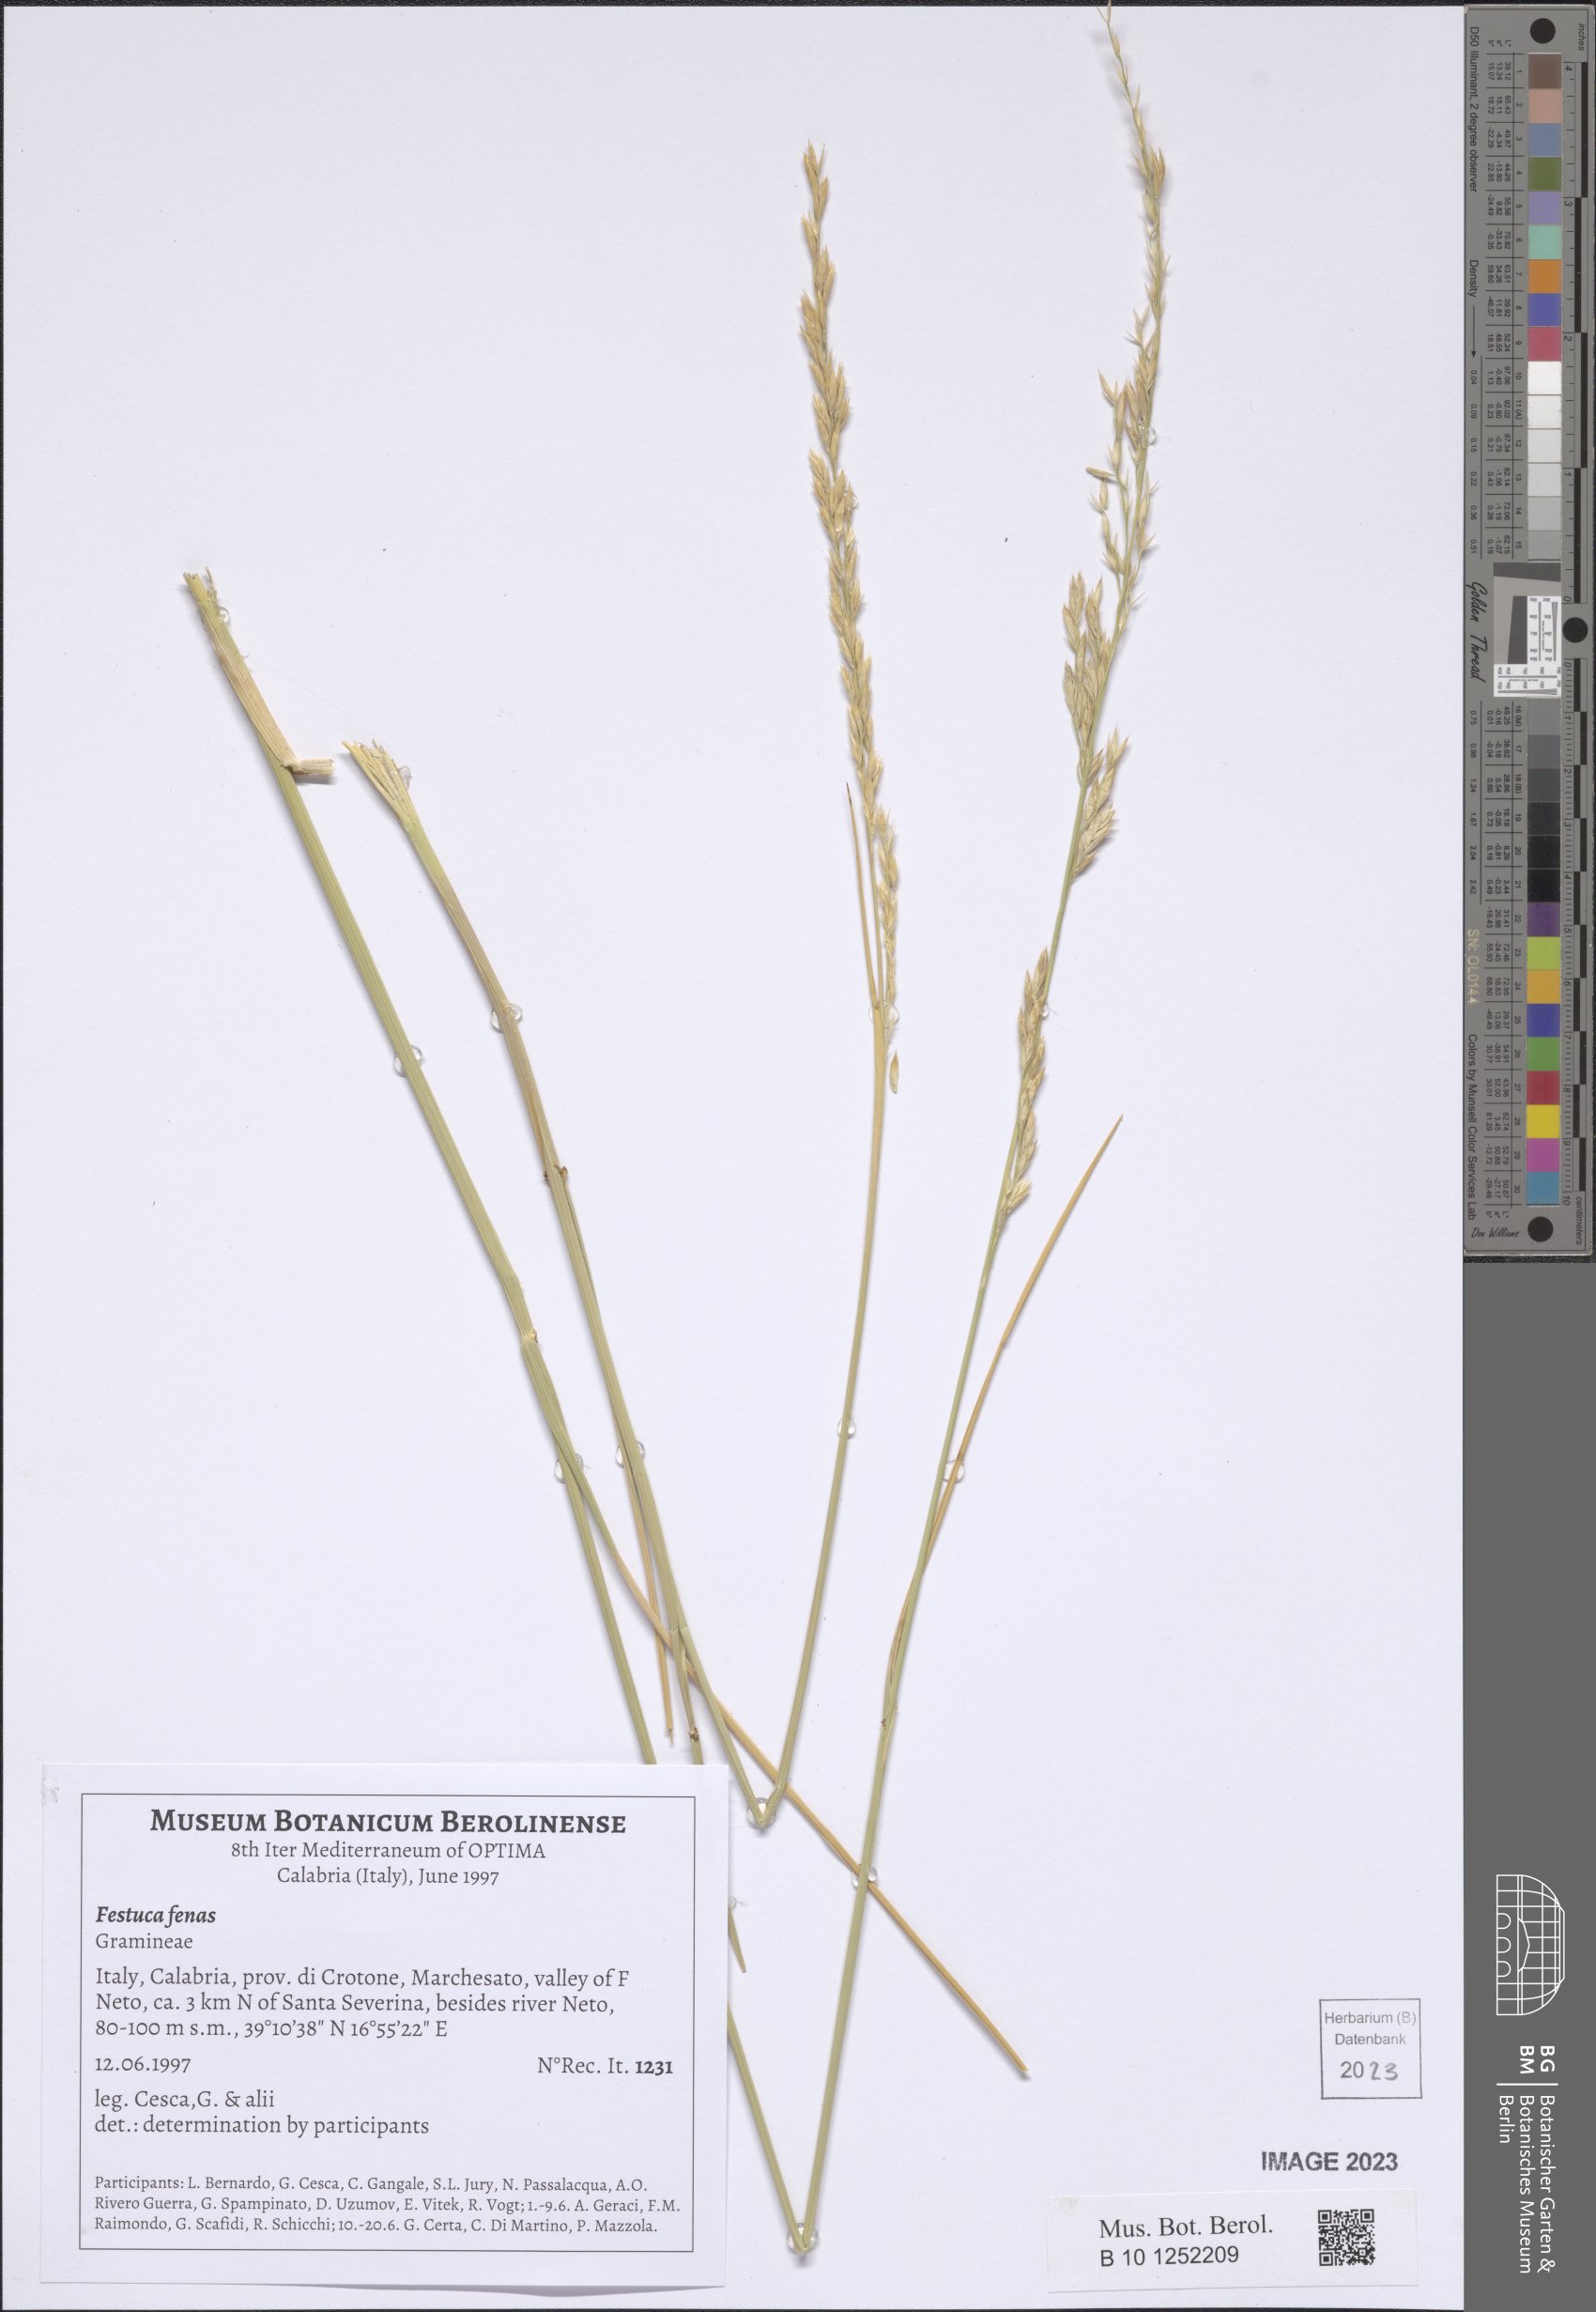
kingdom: Plantae
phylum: Tracheophyta
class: Liliopsida
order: Poales
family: Poaceae
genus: Lolium
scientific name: Lolium interruptum
